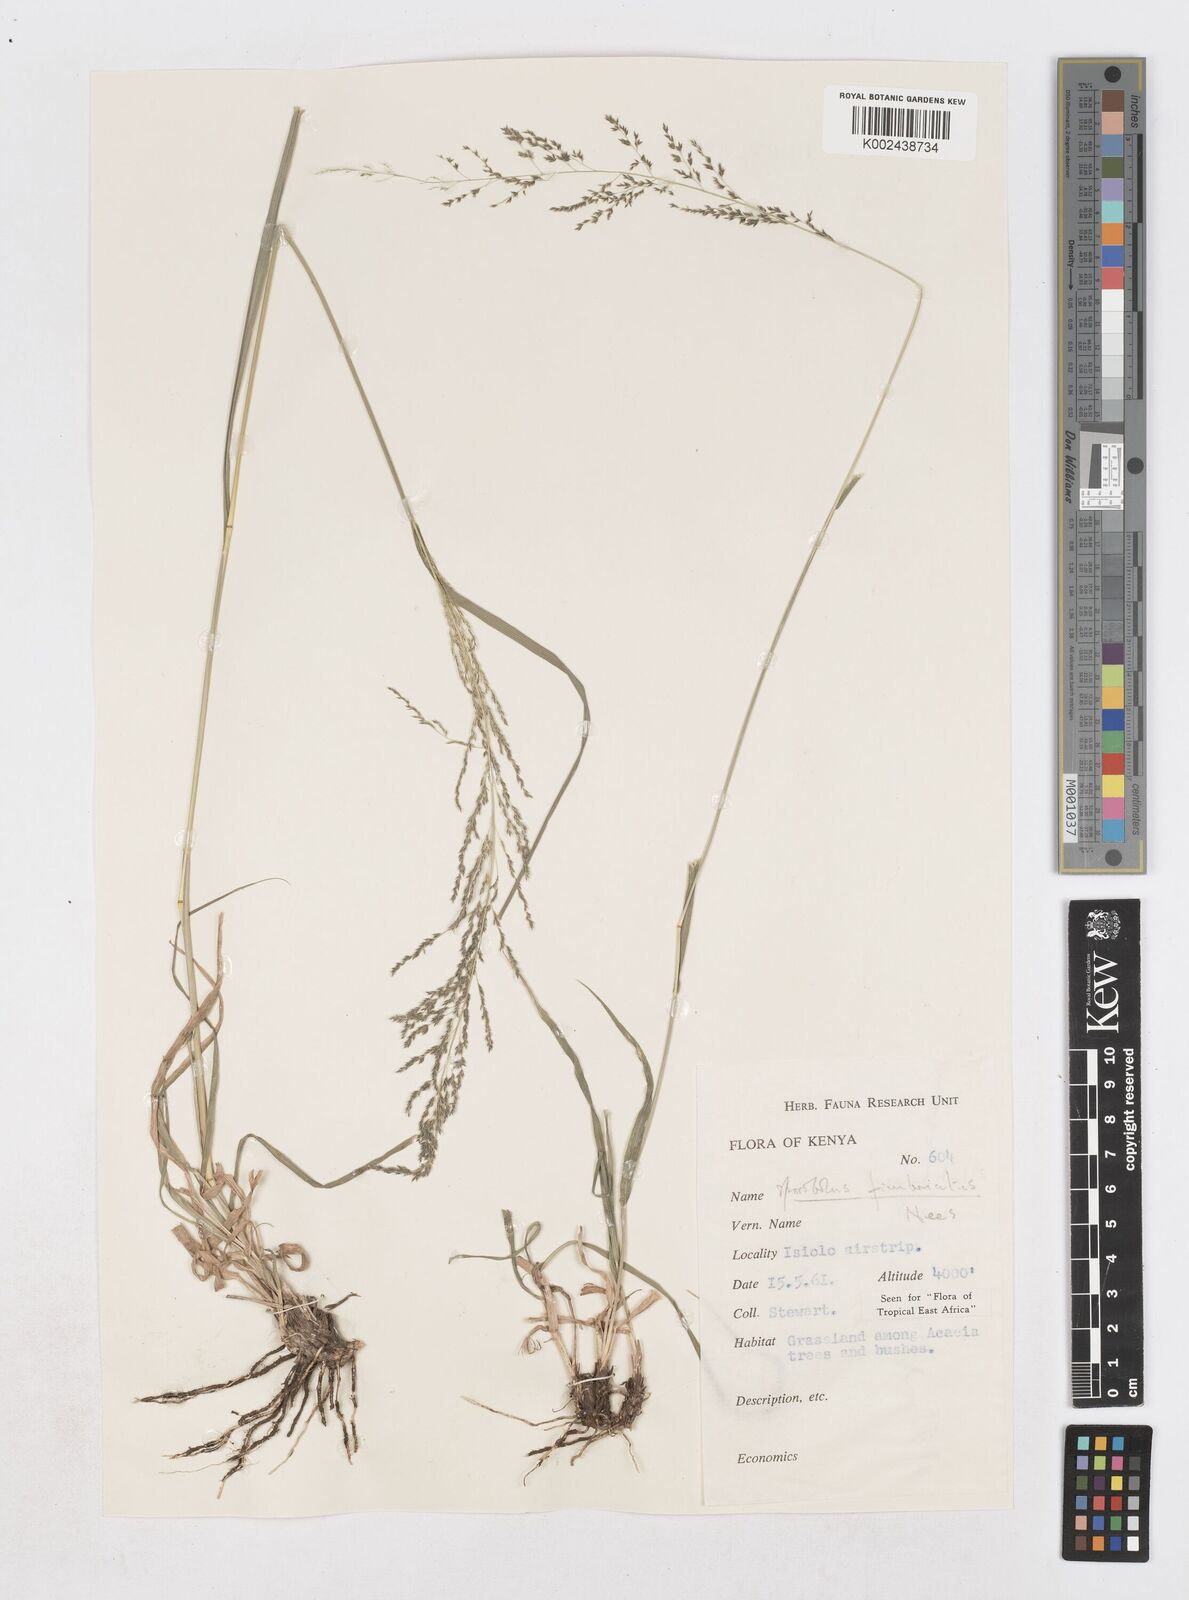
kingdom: Plantae
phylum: Tracheophyta
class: Liliopsida
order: Poales
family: Poaceae
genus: Sporobolus
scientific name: Sporobolus fimbriatus
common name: Fringed dropseed
